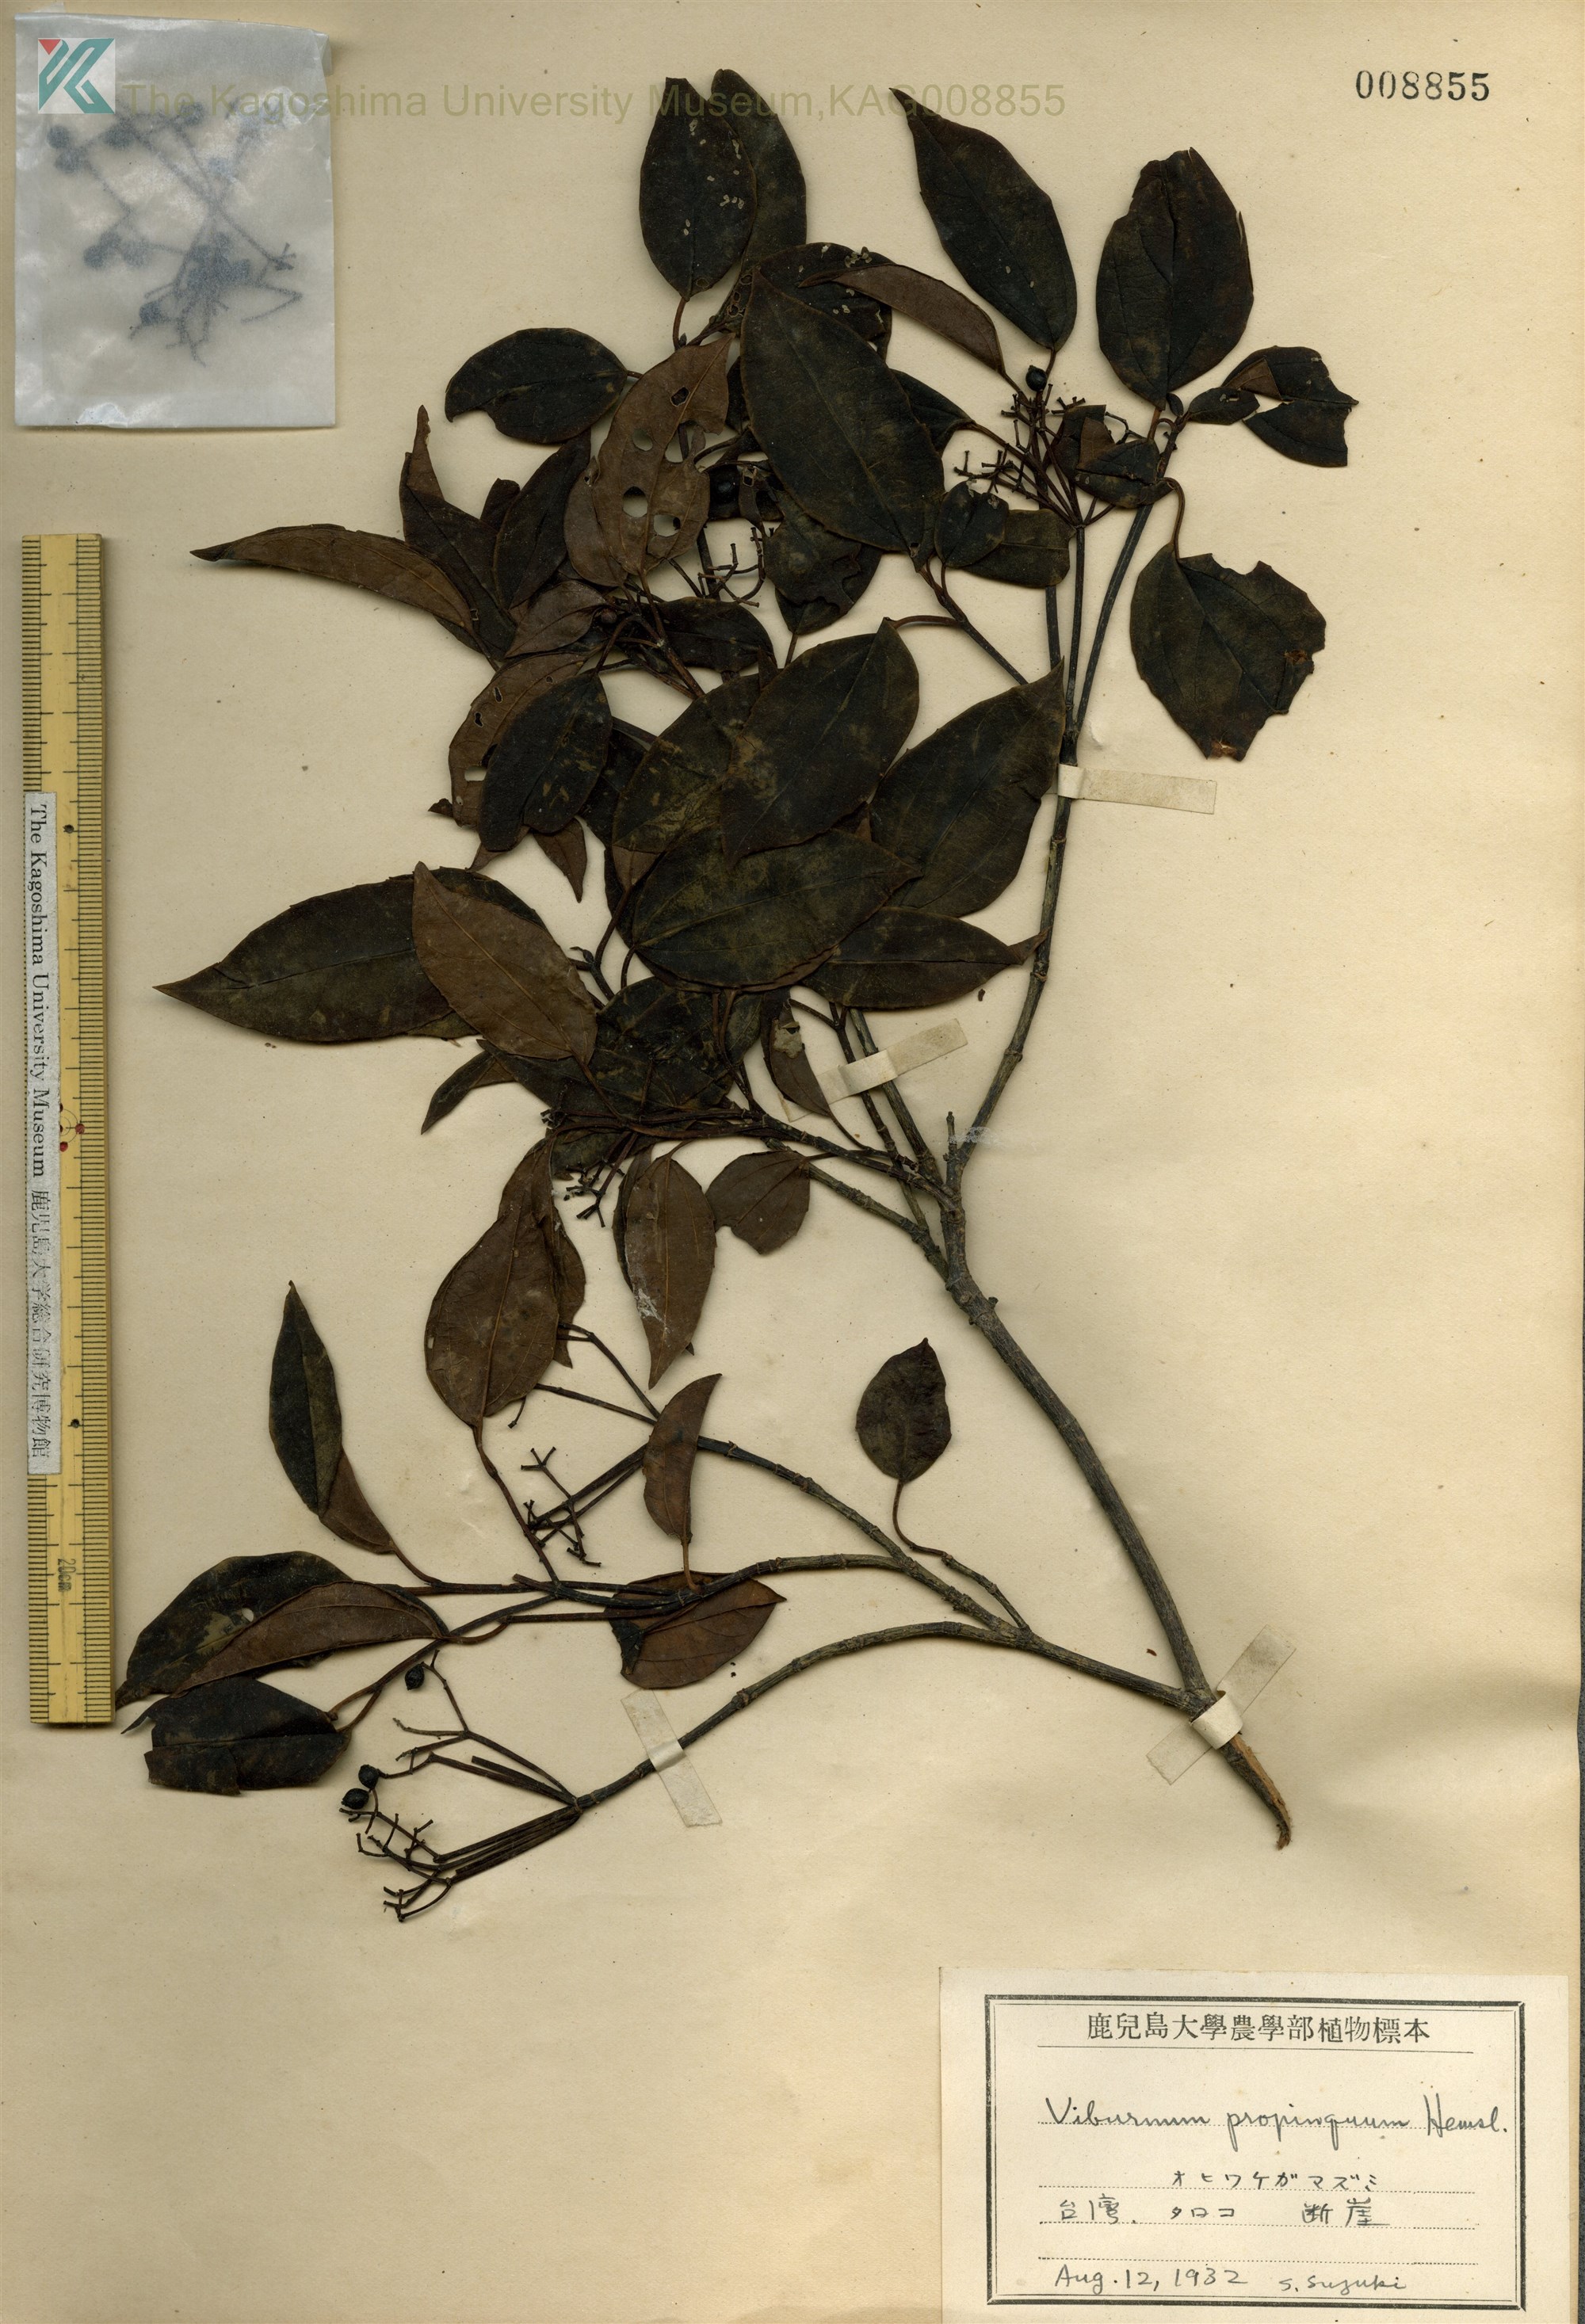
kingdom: Plantae
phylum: Tracheophyta
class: Magnoliopsida
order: Dipsacales
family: Viburnaceae
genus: Viburnum
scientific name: Viburnum propinquum
